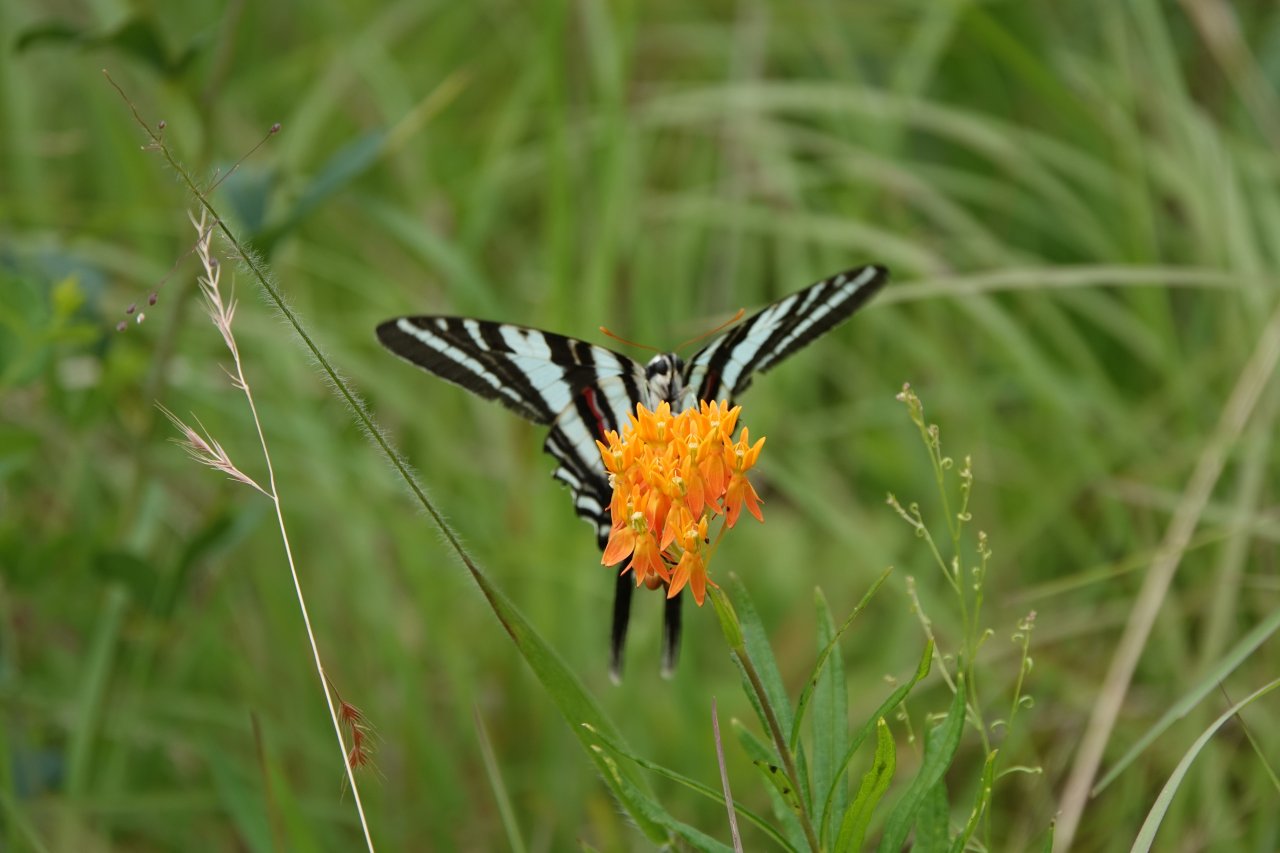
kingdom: Animalia
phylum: Arthropoda
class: Insecta
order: Lepidoptera
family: Papilionidae
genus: Protographium
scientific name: Protographium marcellus
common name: Zebra Swallowtail
